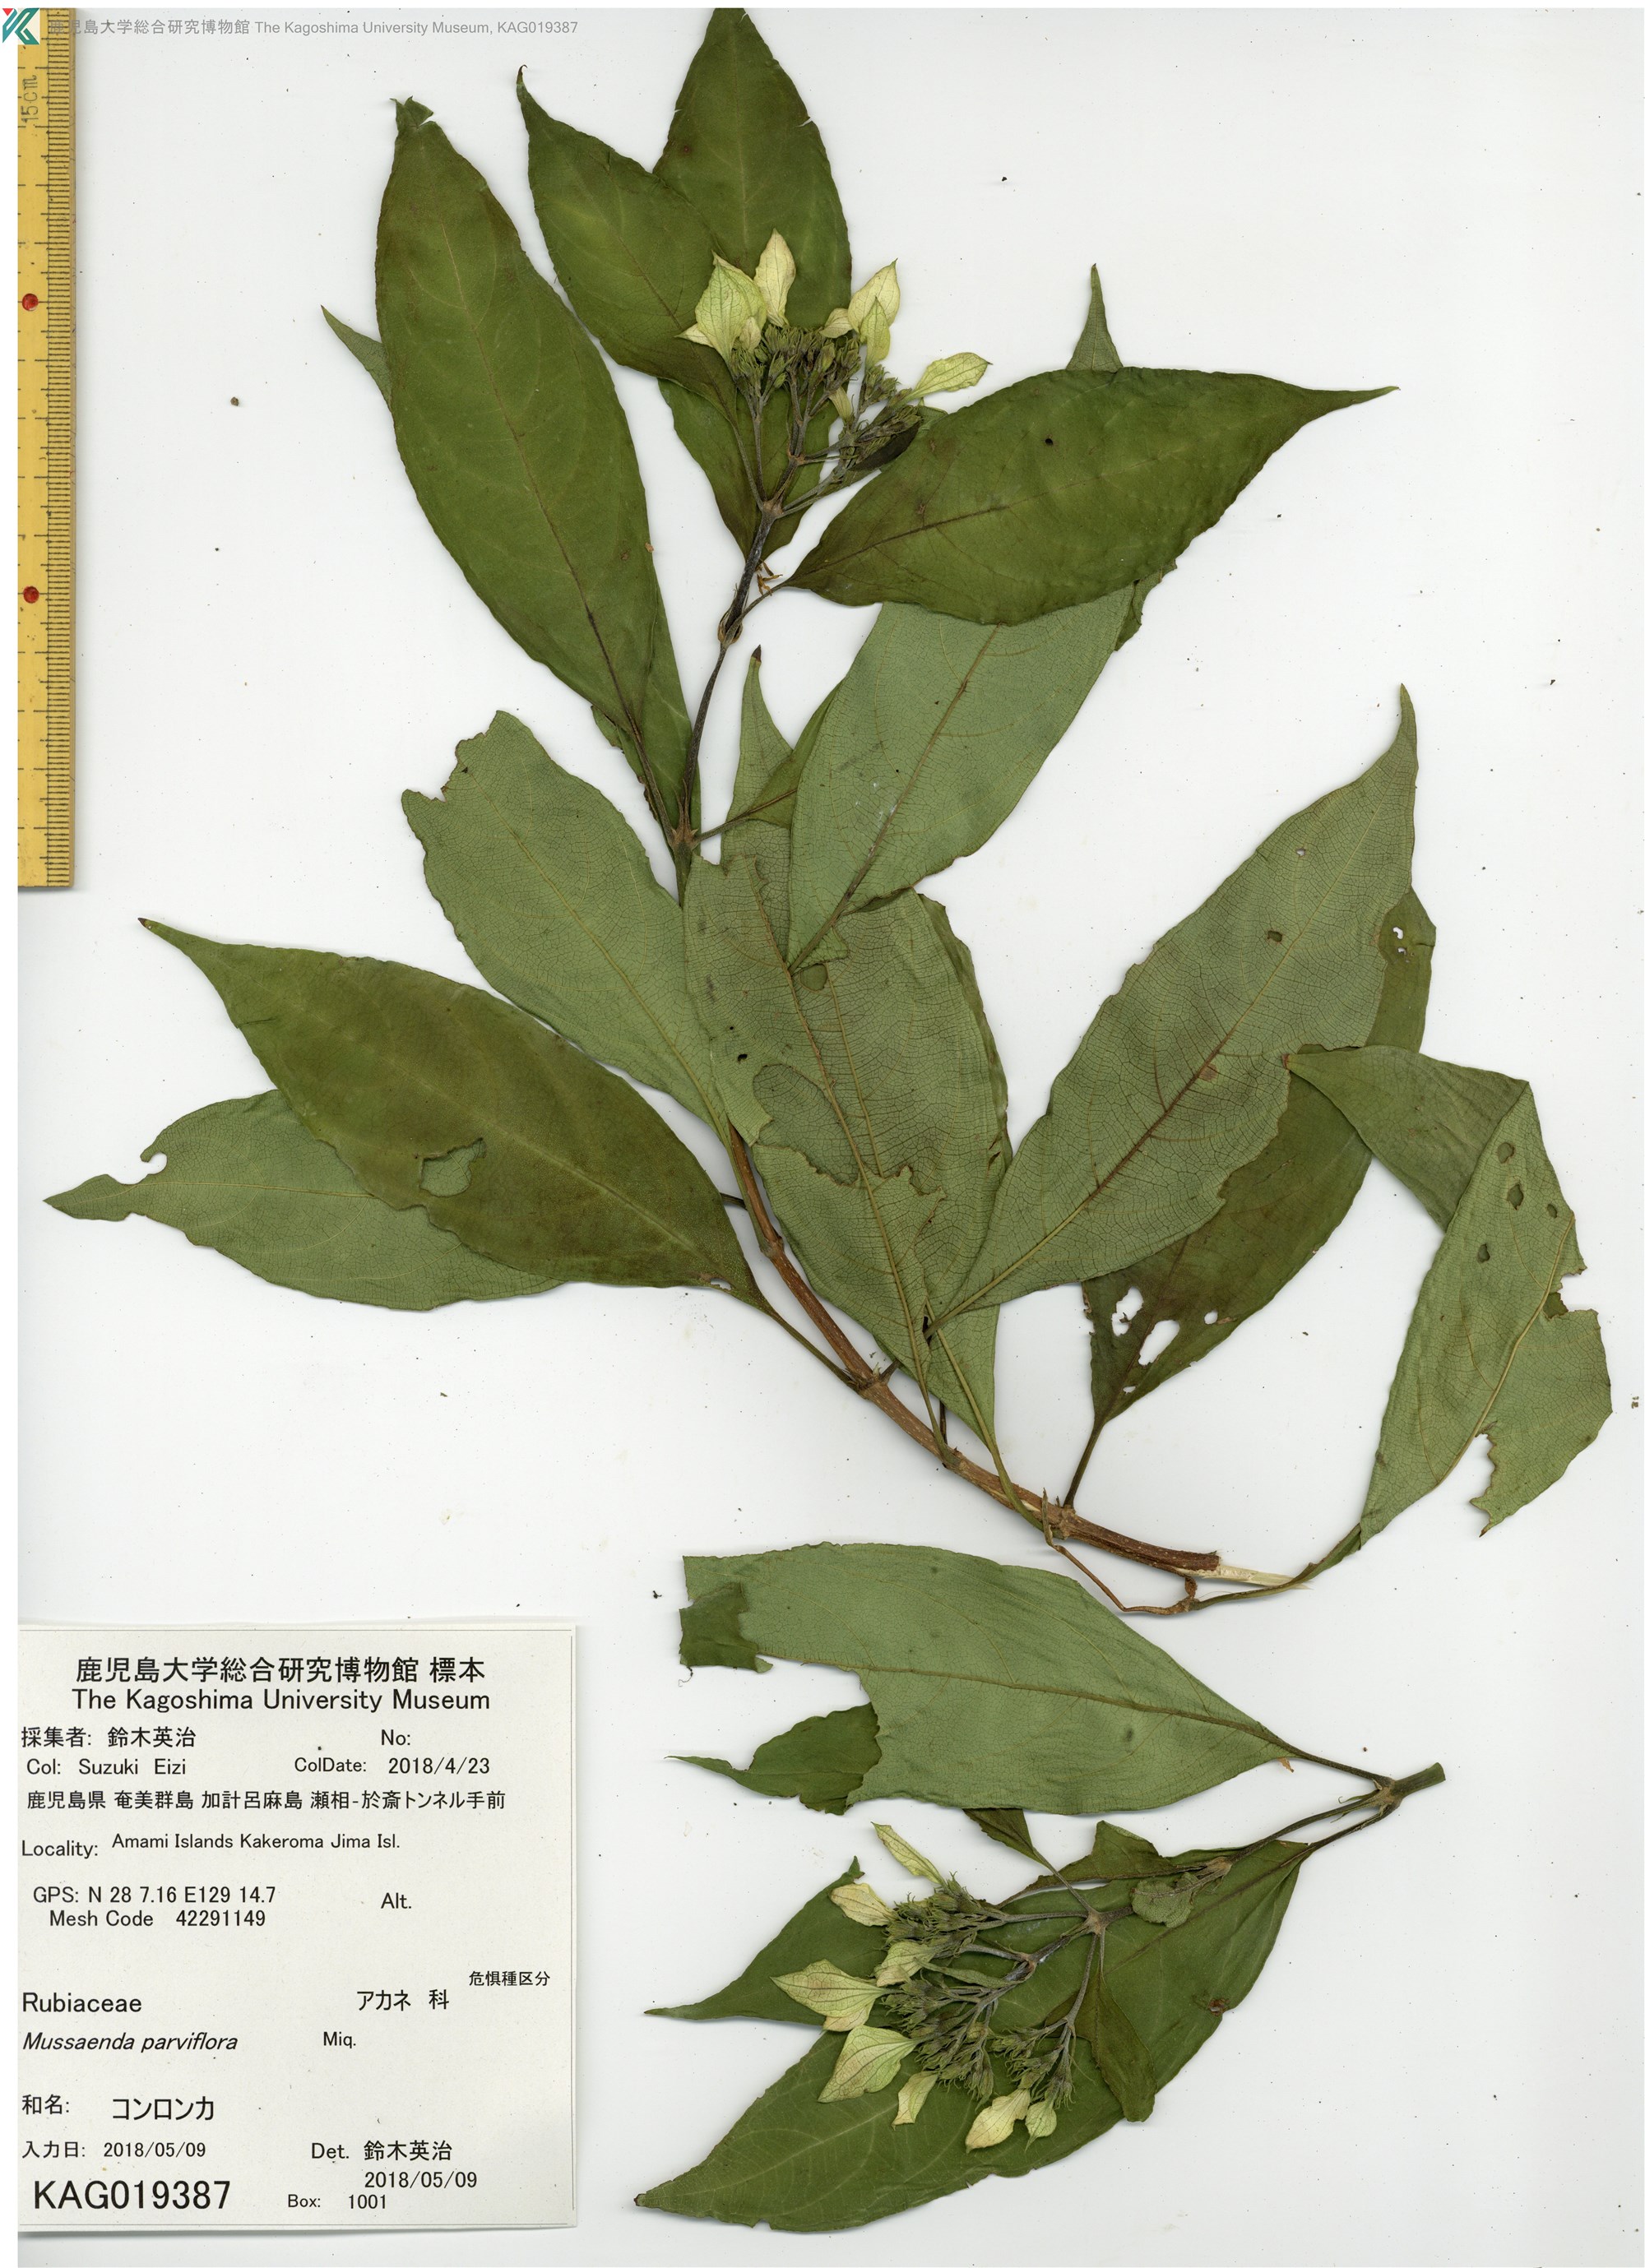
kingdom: Plantae
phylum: Tracheophyta
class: Magnoliopsida
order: Gentianales
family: Rubiaceae
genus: Mussaenda
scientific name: Mussaenda parviflora
